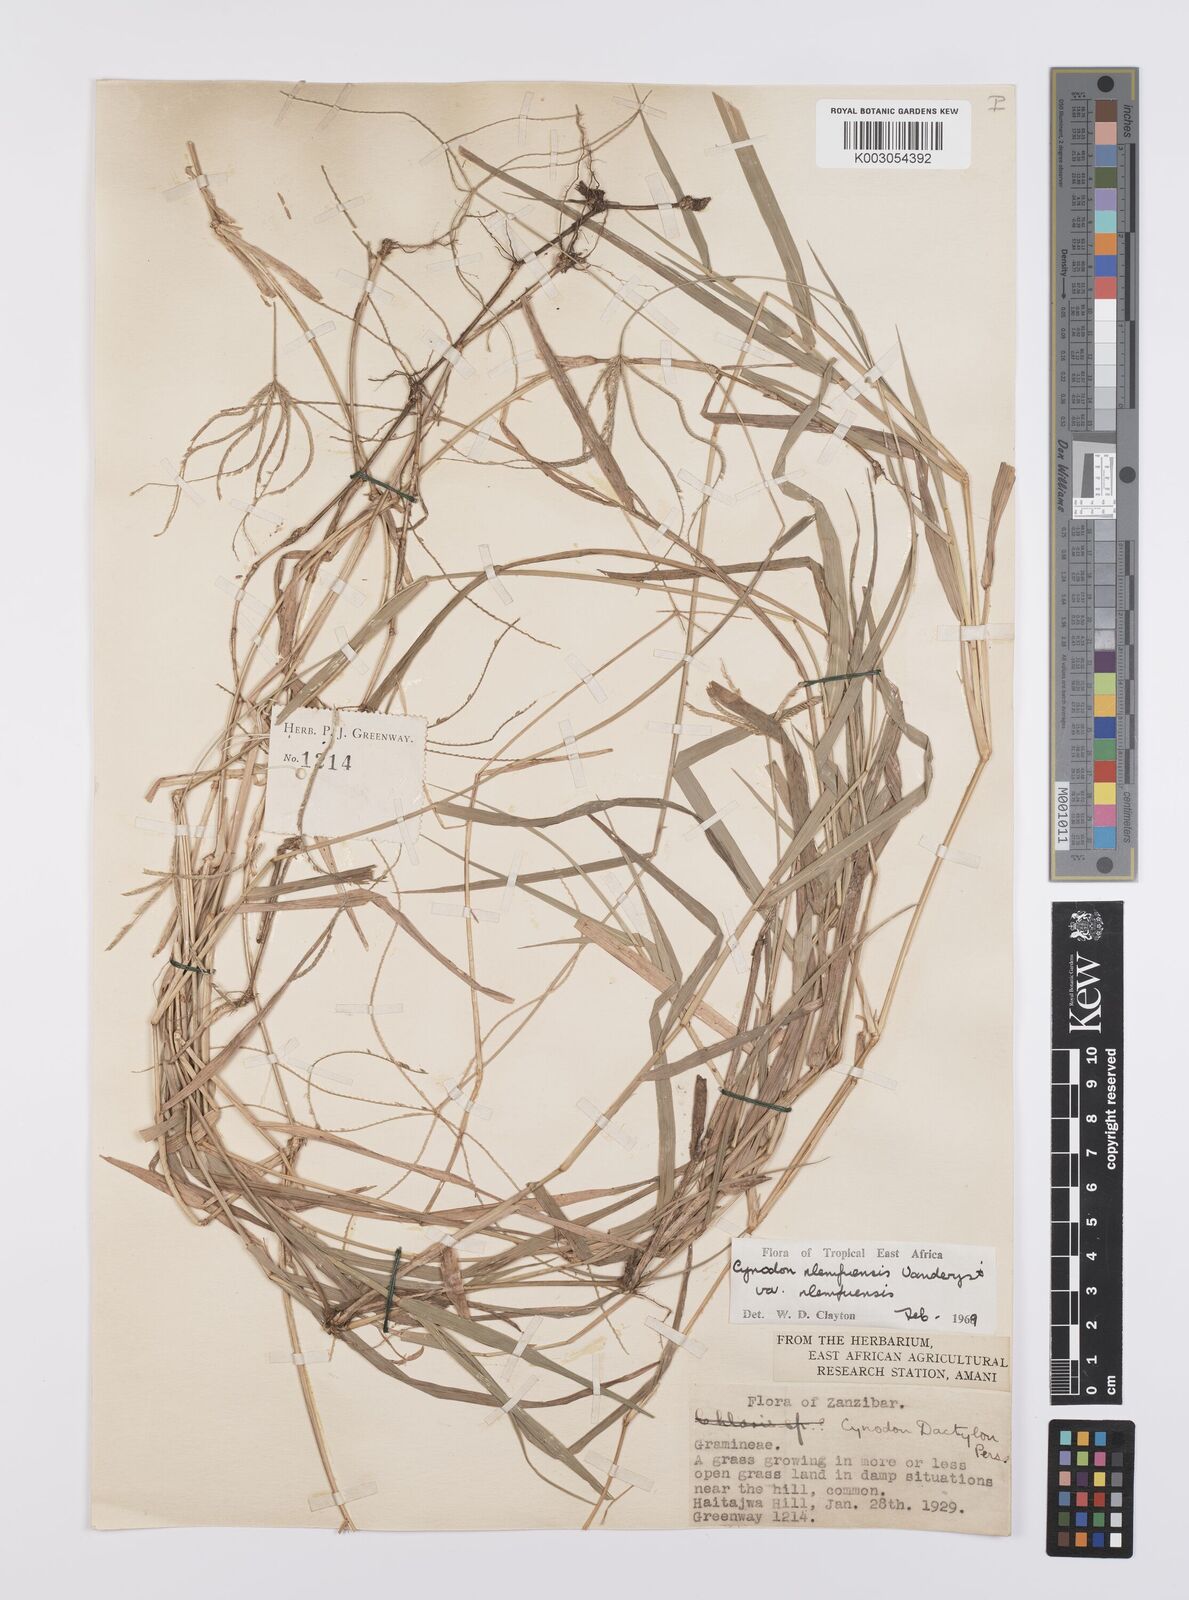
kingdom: Plantae
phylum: Tracheophyta
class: Liliopsida
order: Poales
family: Poaceae
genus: Cynodon
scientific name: Cynodon nlemfuensis
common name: African bermudagrass
